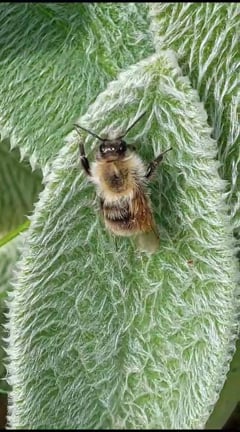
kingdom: Animalia
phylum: Arthropoda
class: Insecta
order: Hymenoptera
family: Apidae
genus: Bombus
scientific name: Bombus pascuorum
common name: Common carder bee
